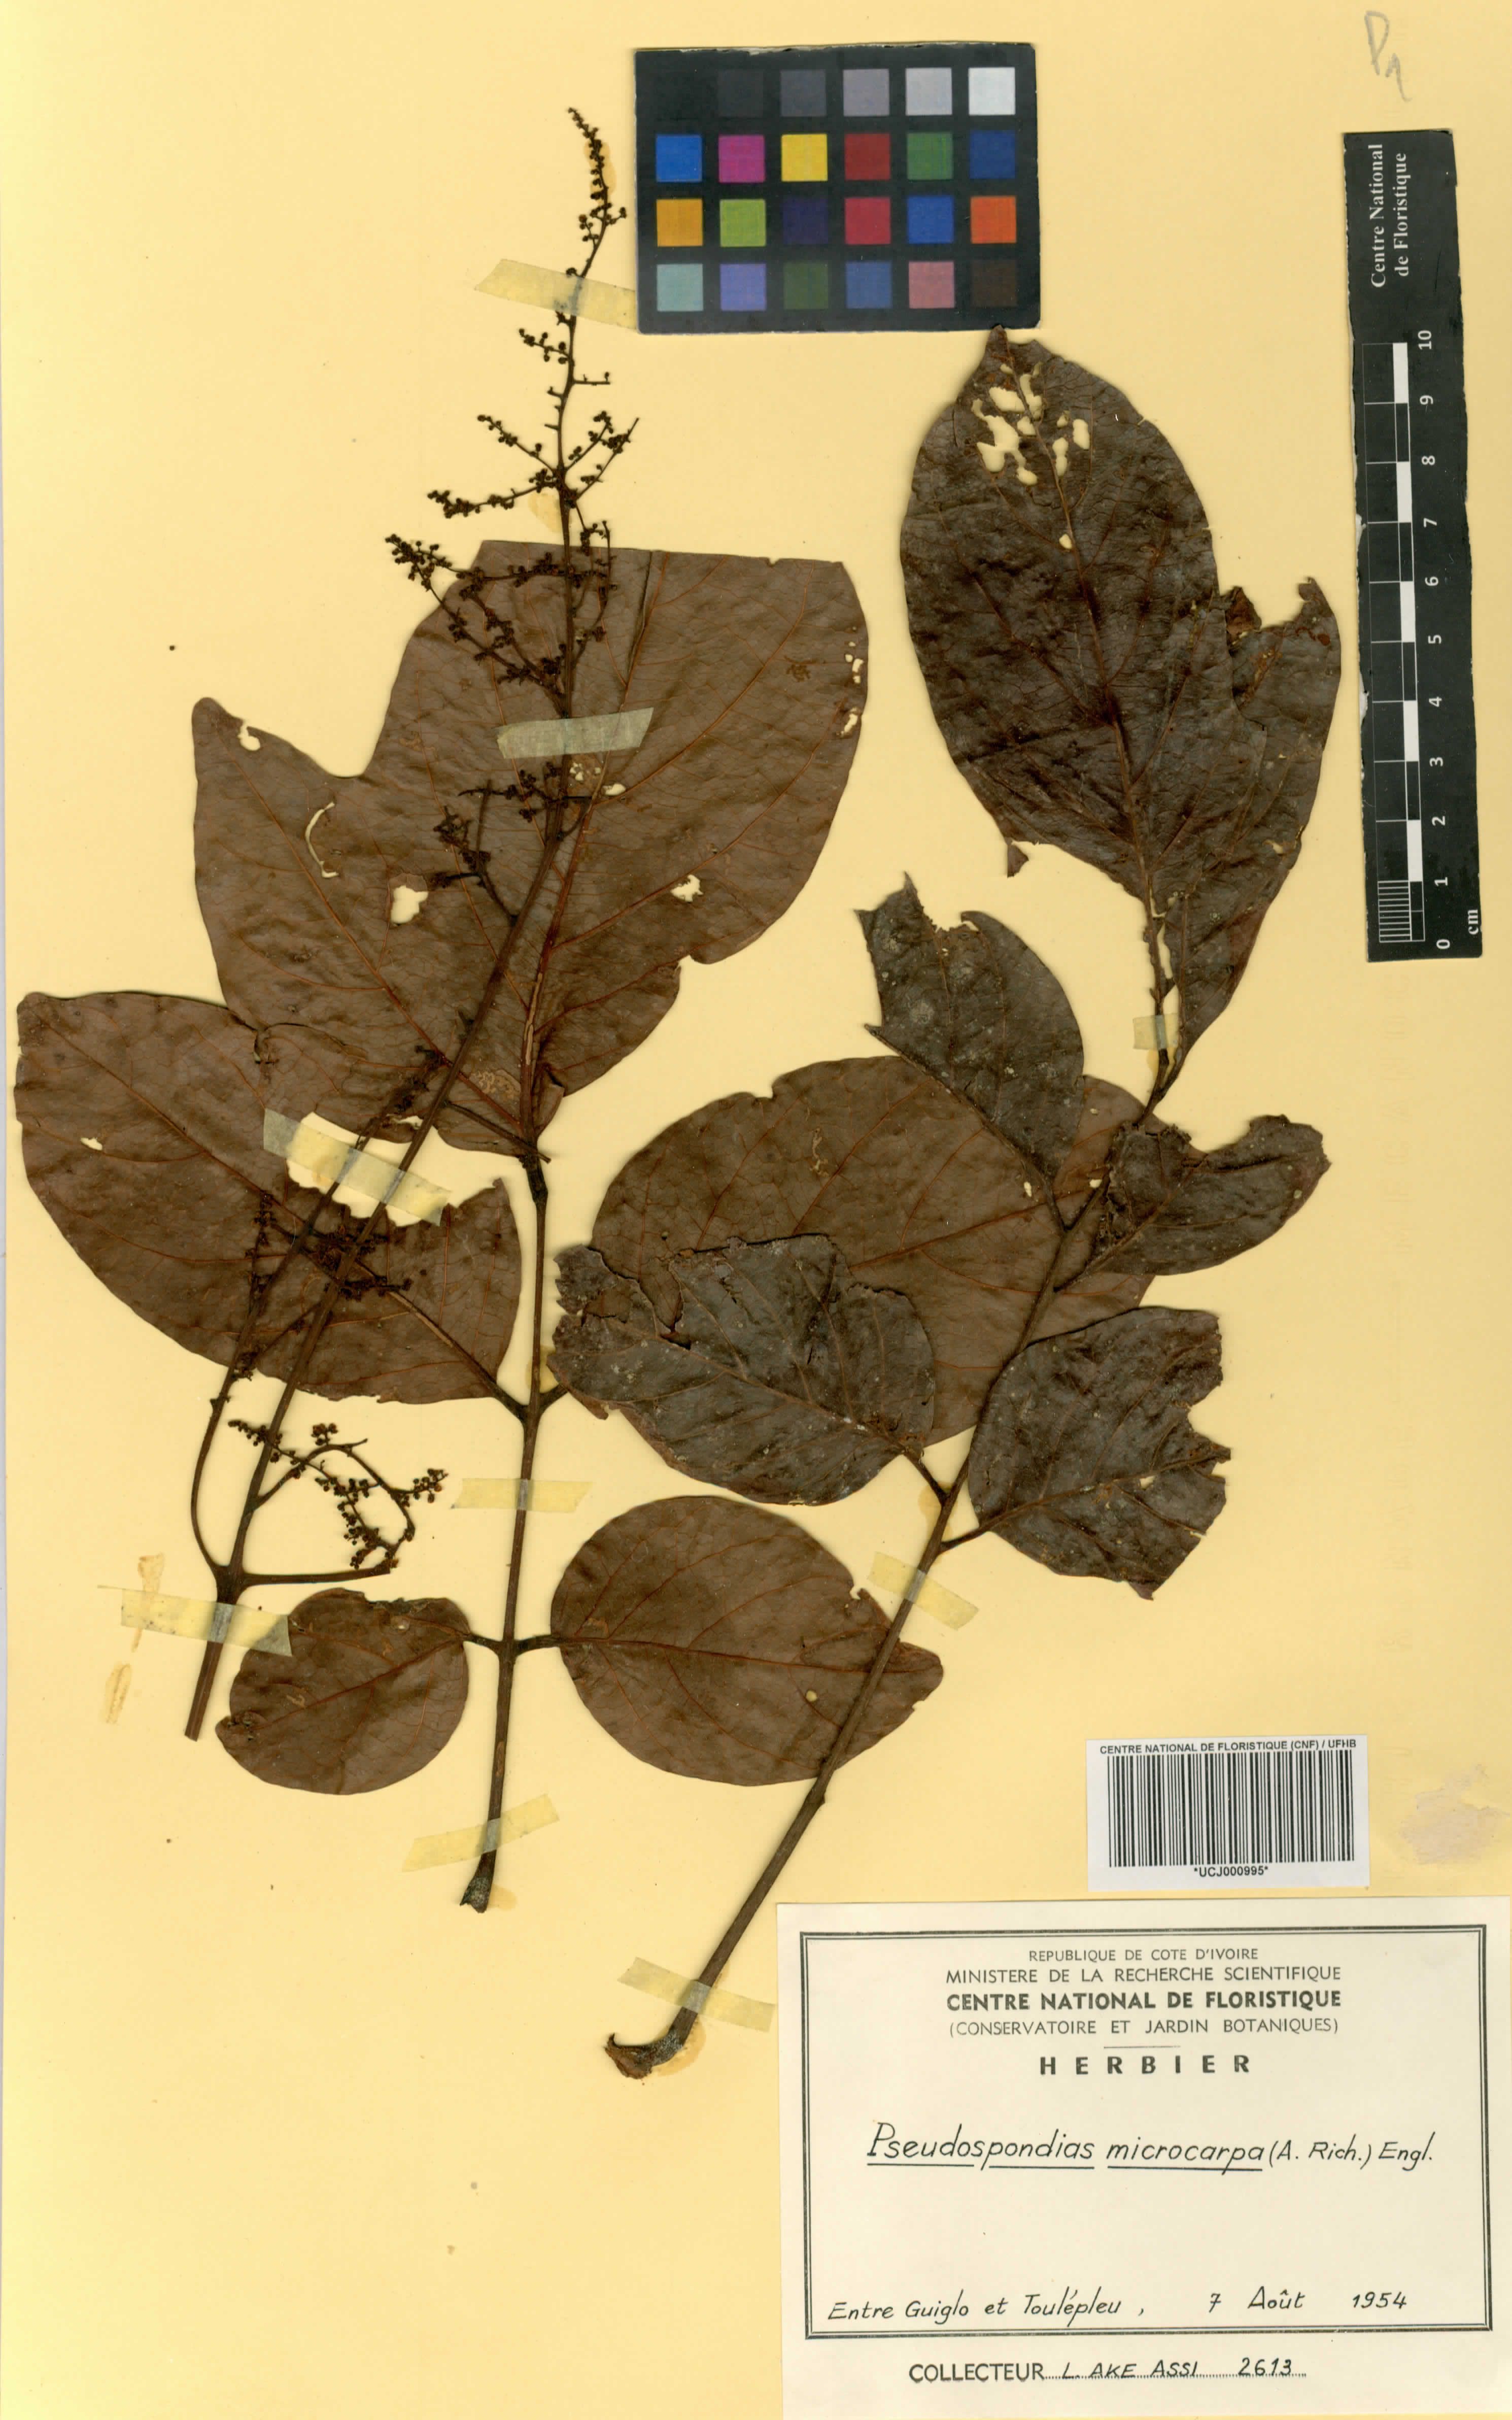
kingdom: Plantae
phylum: Tracheophyta
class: Magnoliopsida
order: Sapindales
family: Anacardiaceae
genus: Pseudospondias
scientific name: Pseudospondias microcarpa
